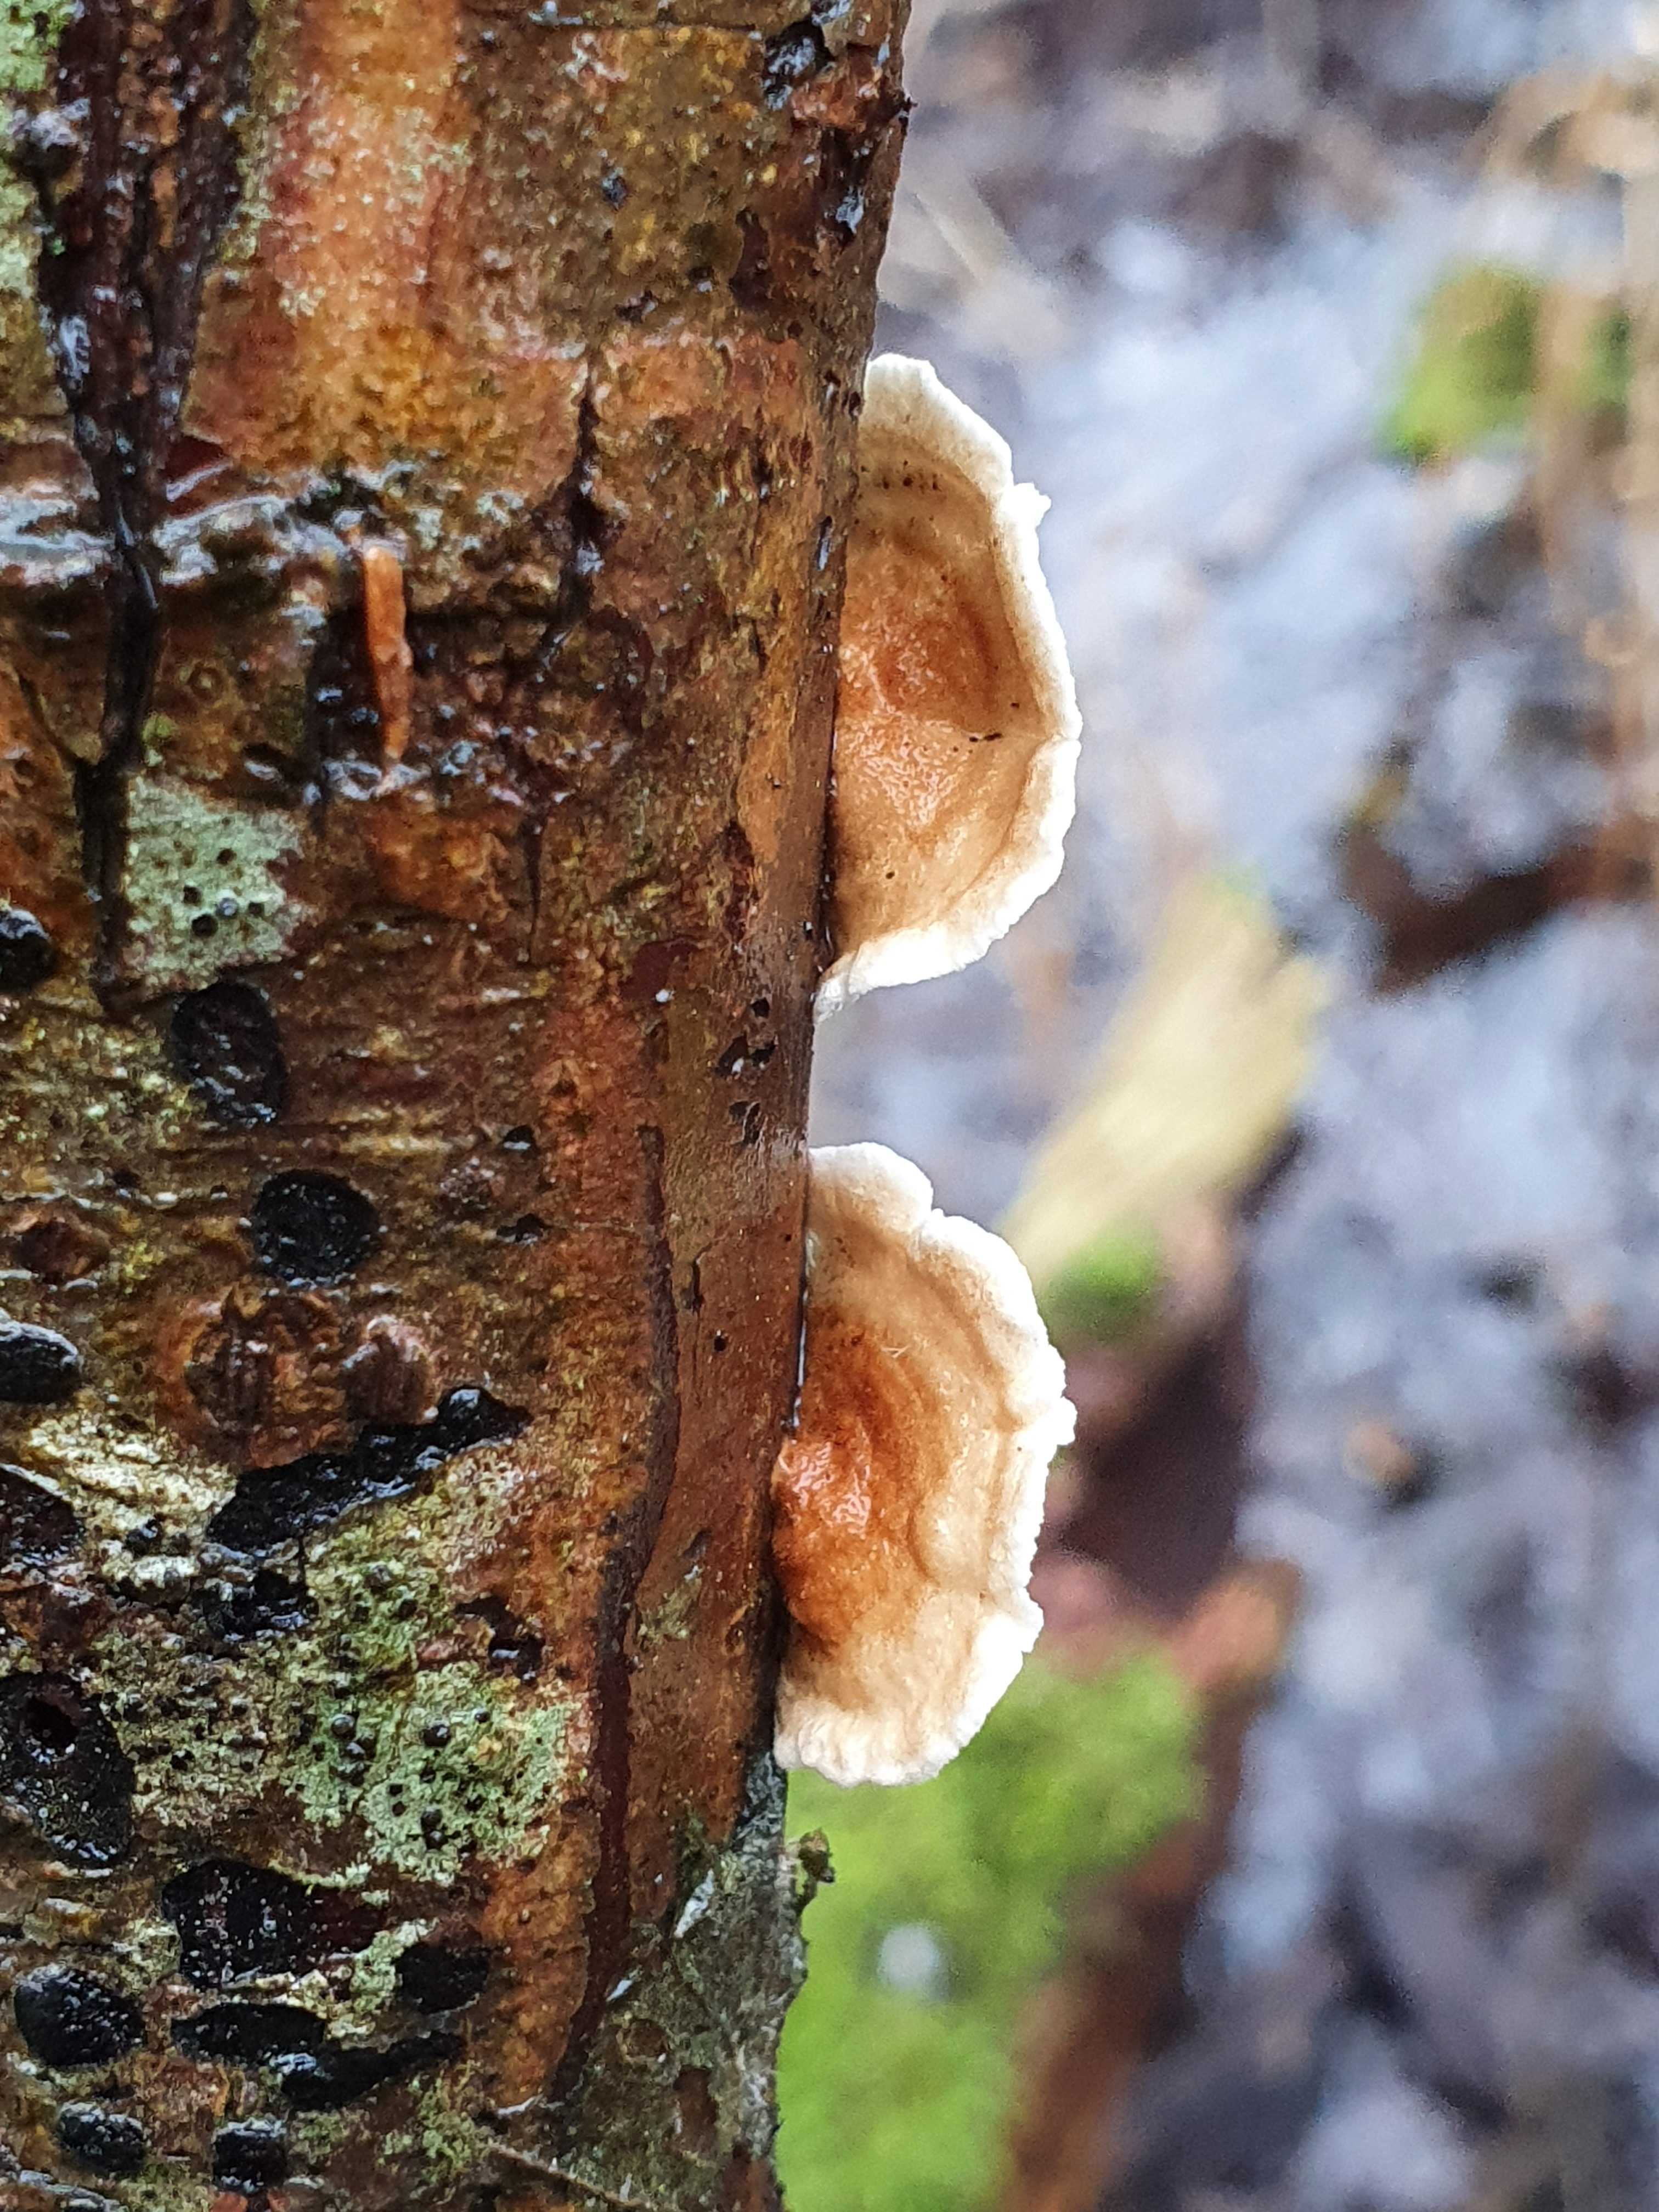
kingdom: Fungi
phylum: Basidiomycota
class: Agaricomycetes
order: Amylocorticiales
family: Amylocorticiaceae
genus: Plicaturopsis
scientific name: Plicaturopsis crispa
